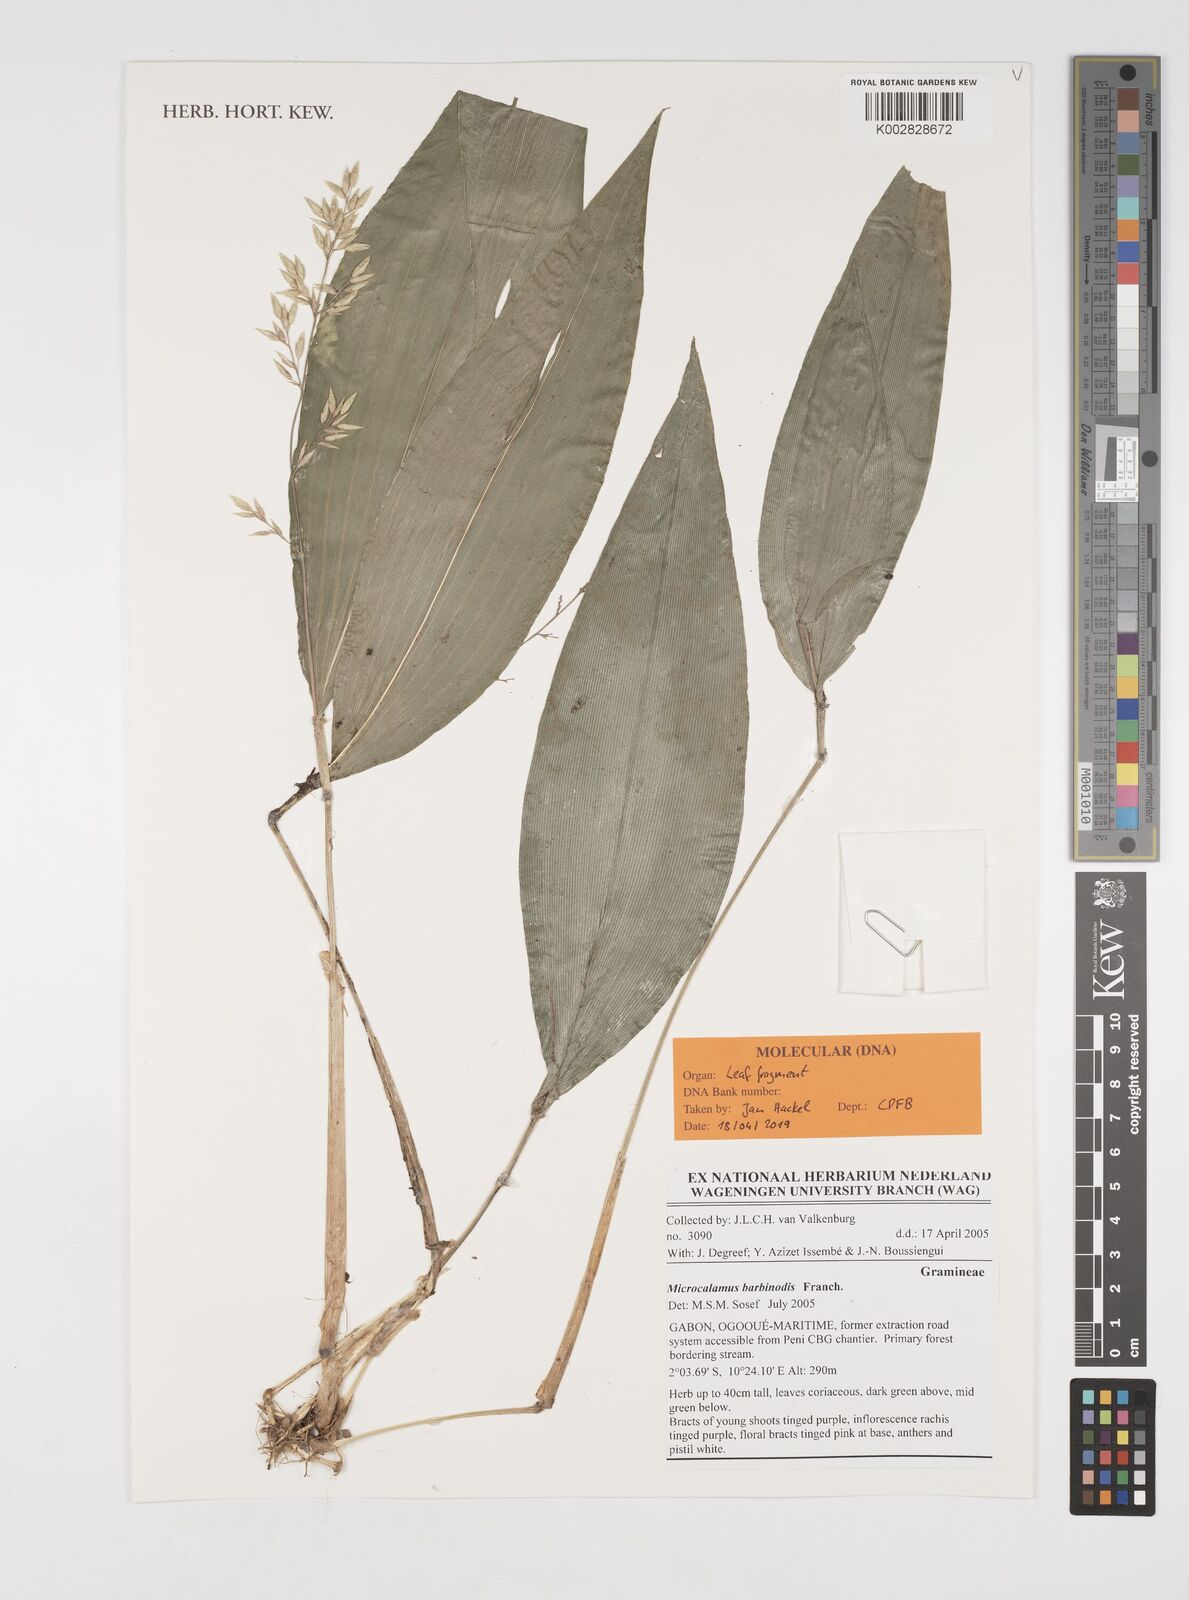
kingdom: Plantae
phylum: Tracheophyta
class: Liliopsida
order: Poales
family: Poaceae
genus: Microcalamus
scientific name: Microcalamus barbinodis
